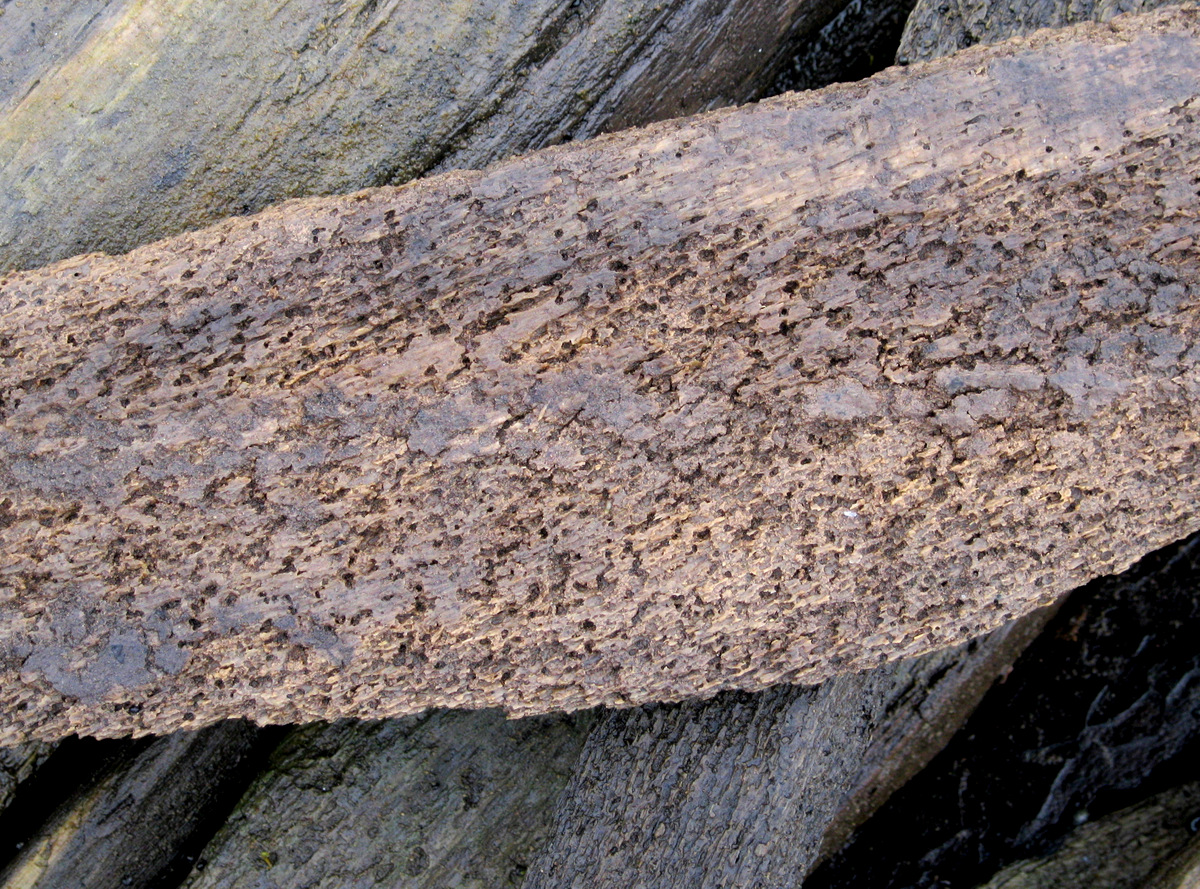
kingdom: Animalia
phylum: Arthropoda
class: Malacostraca
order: Isopoda
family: Limnoriidae
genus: Limnoria
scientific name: Limnoria lignorum
